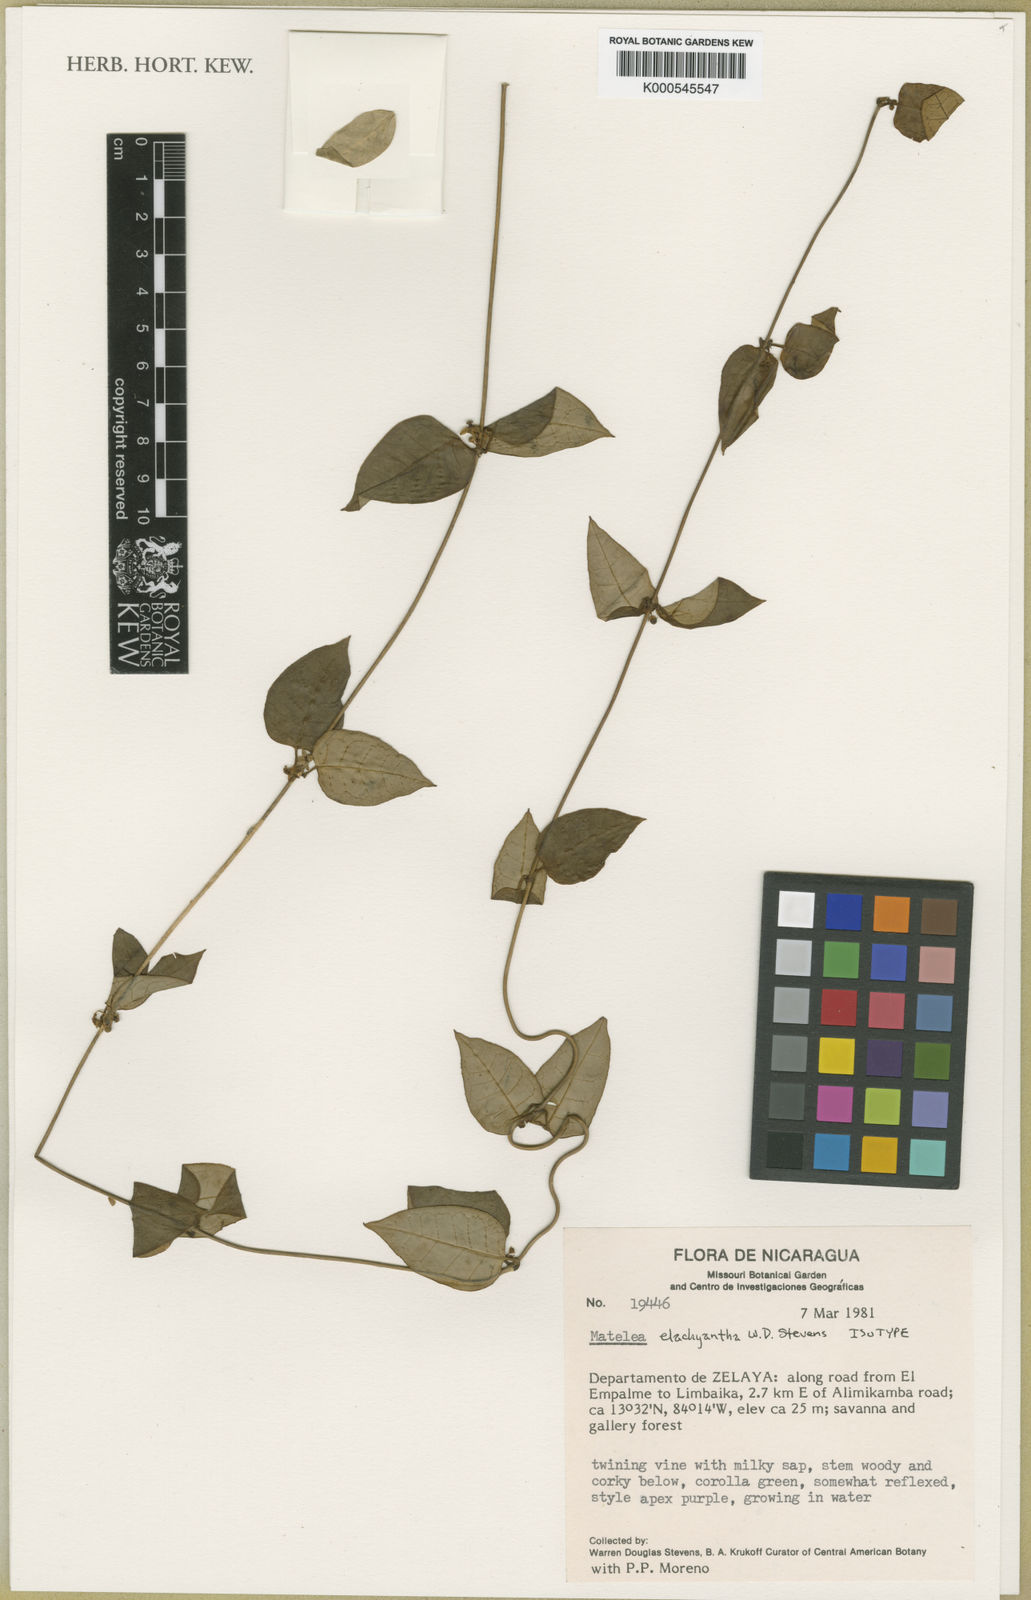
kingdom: Plantae
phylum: Tracheophyta
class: Magnoliopsida
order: Gentianales
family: Apocynaceae
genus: Matelea
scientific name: Matelea elachyantha
